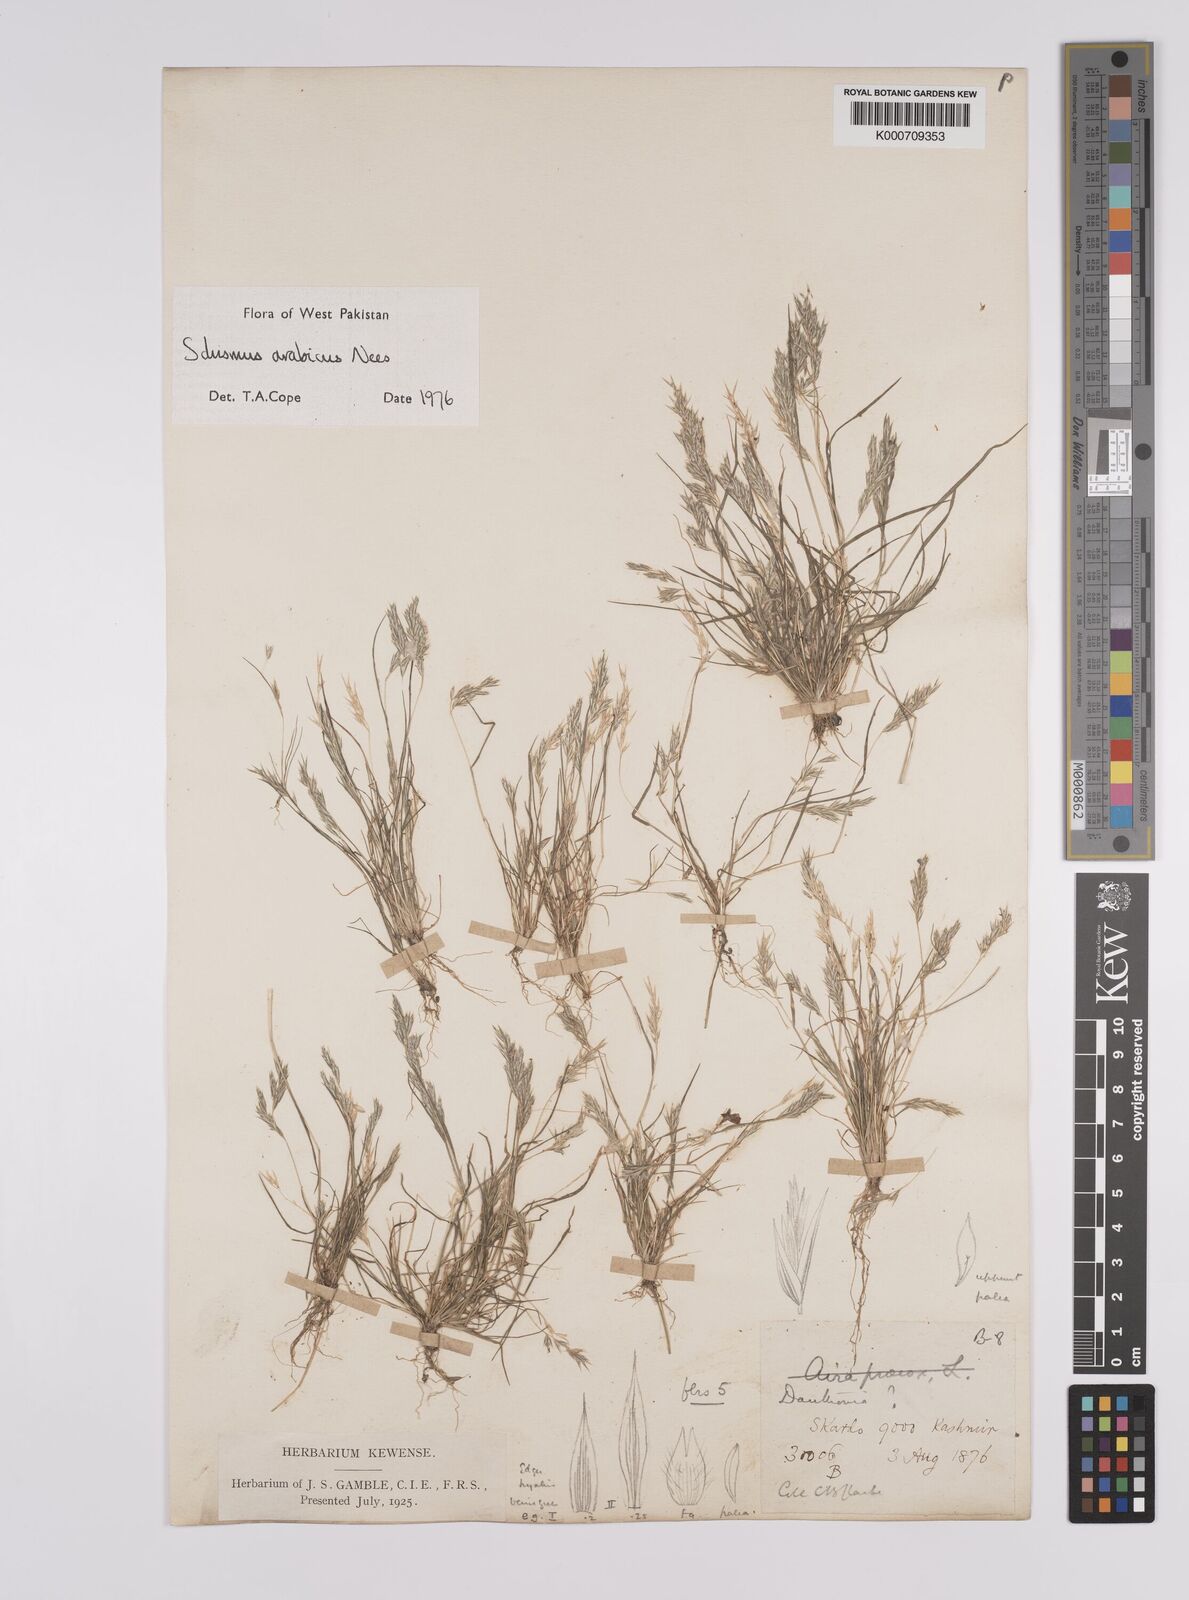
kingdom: Plantae
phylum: Tracheophyta
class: Liliopsida
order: Poales
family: Poaceae
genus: Schismus
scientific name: Schismus arabicus
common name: Arabian schismus
